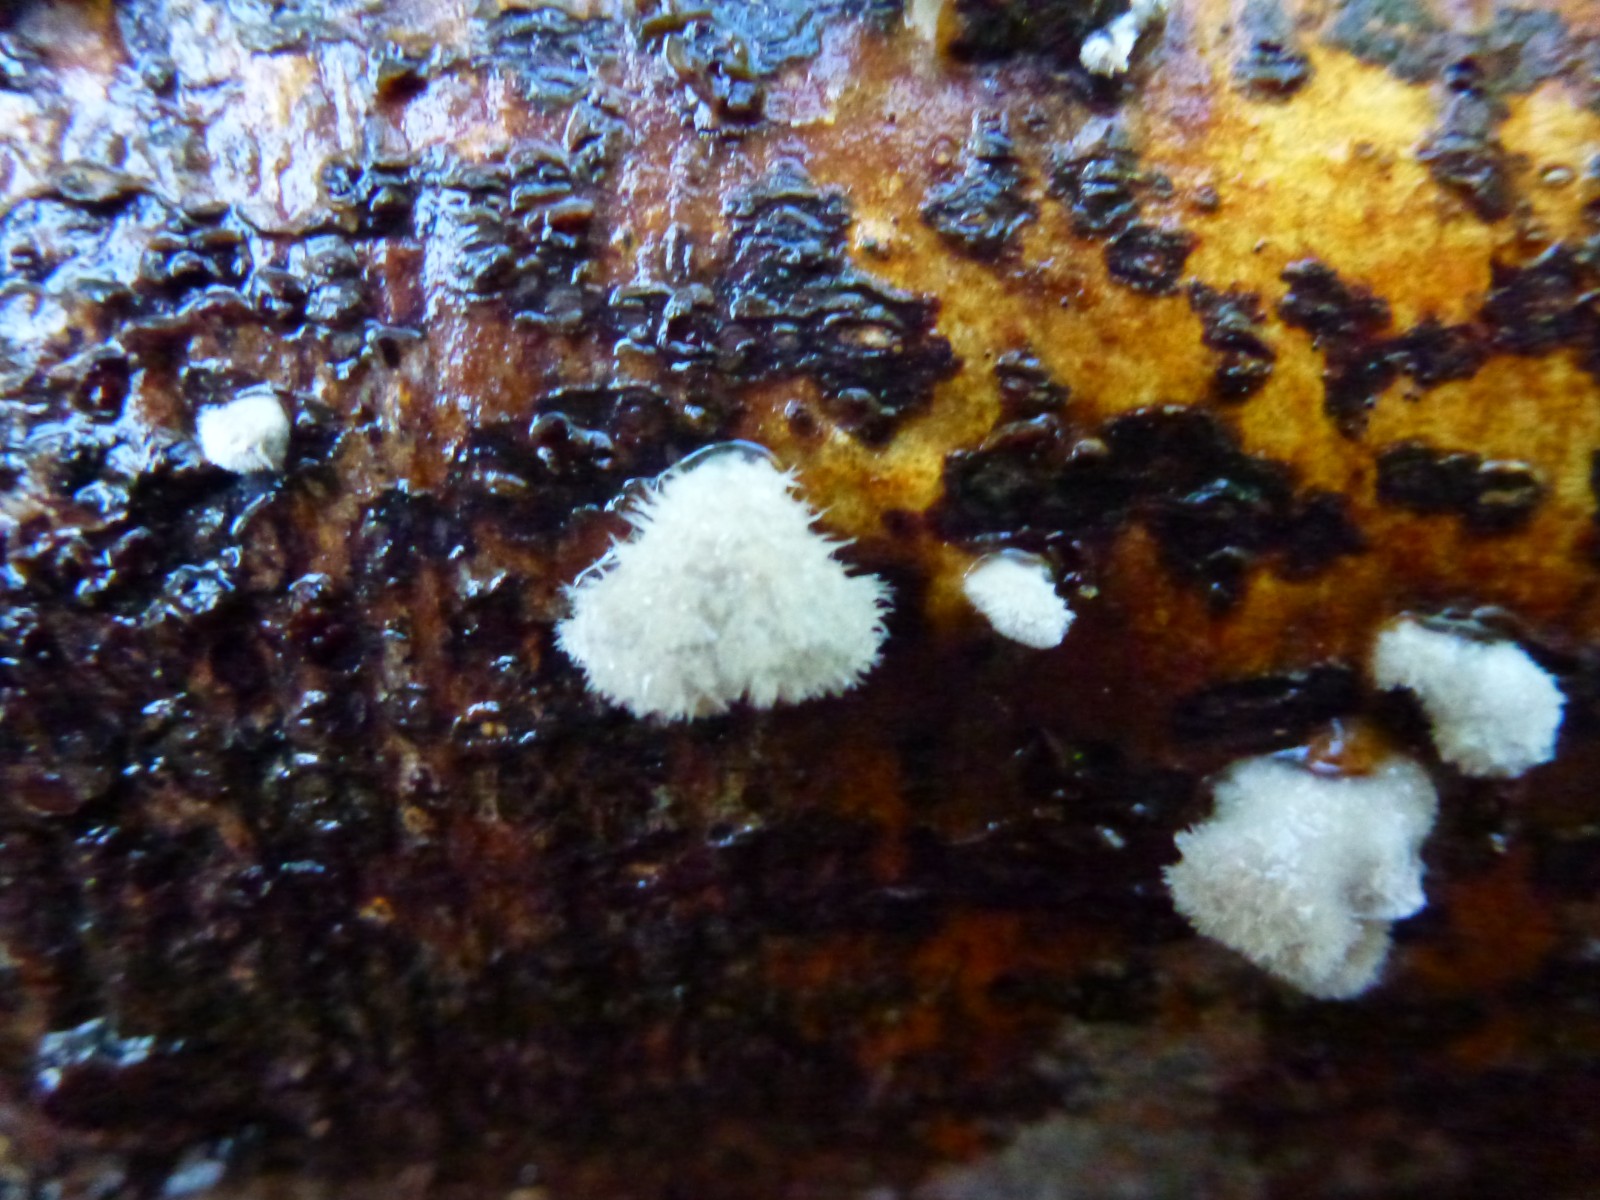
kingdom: Fungi
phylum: Basidiomycota
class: Agaricomycetes
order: Agaricales
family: Schizophyllaceae
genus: Schizophyllum
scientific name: Schizophyllum commune
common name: kløvblad
